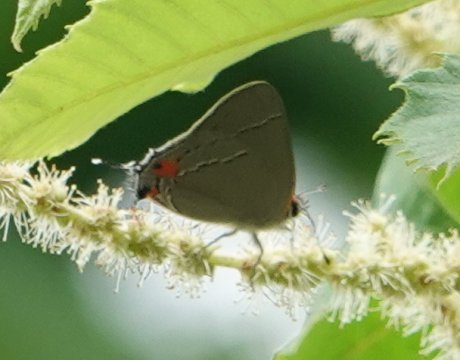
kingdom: Animalia
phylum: Arthropoda
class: Insecta
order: Lepidoptera
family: Lycaenidae
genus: Strymon
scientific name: Strymon melinus
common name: Gray Hairstreak
